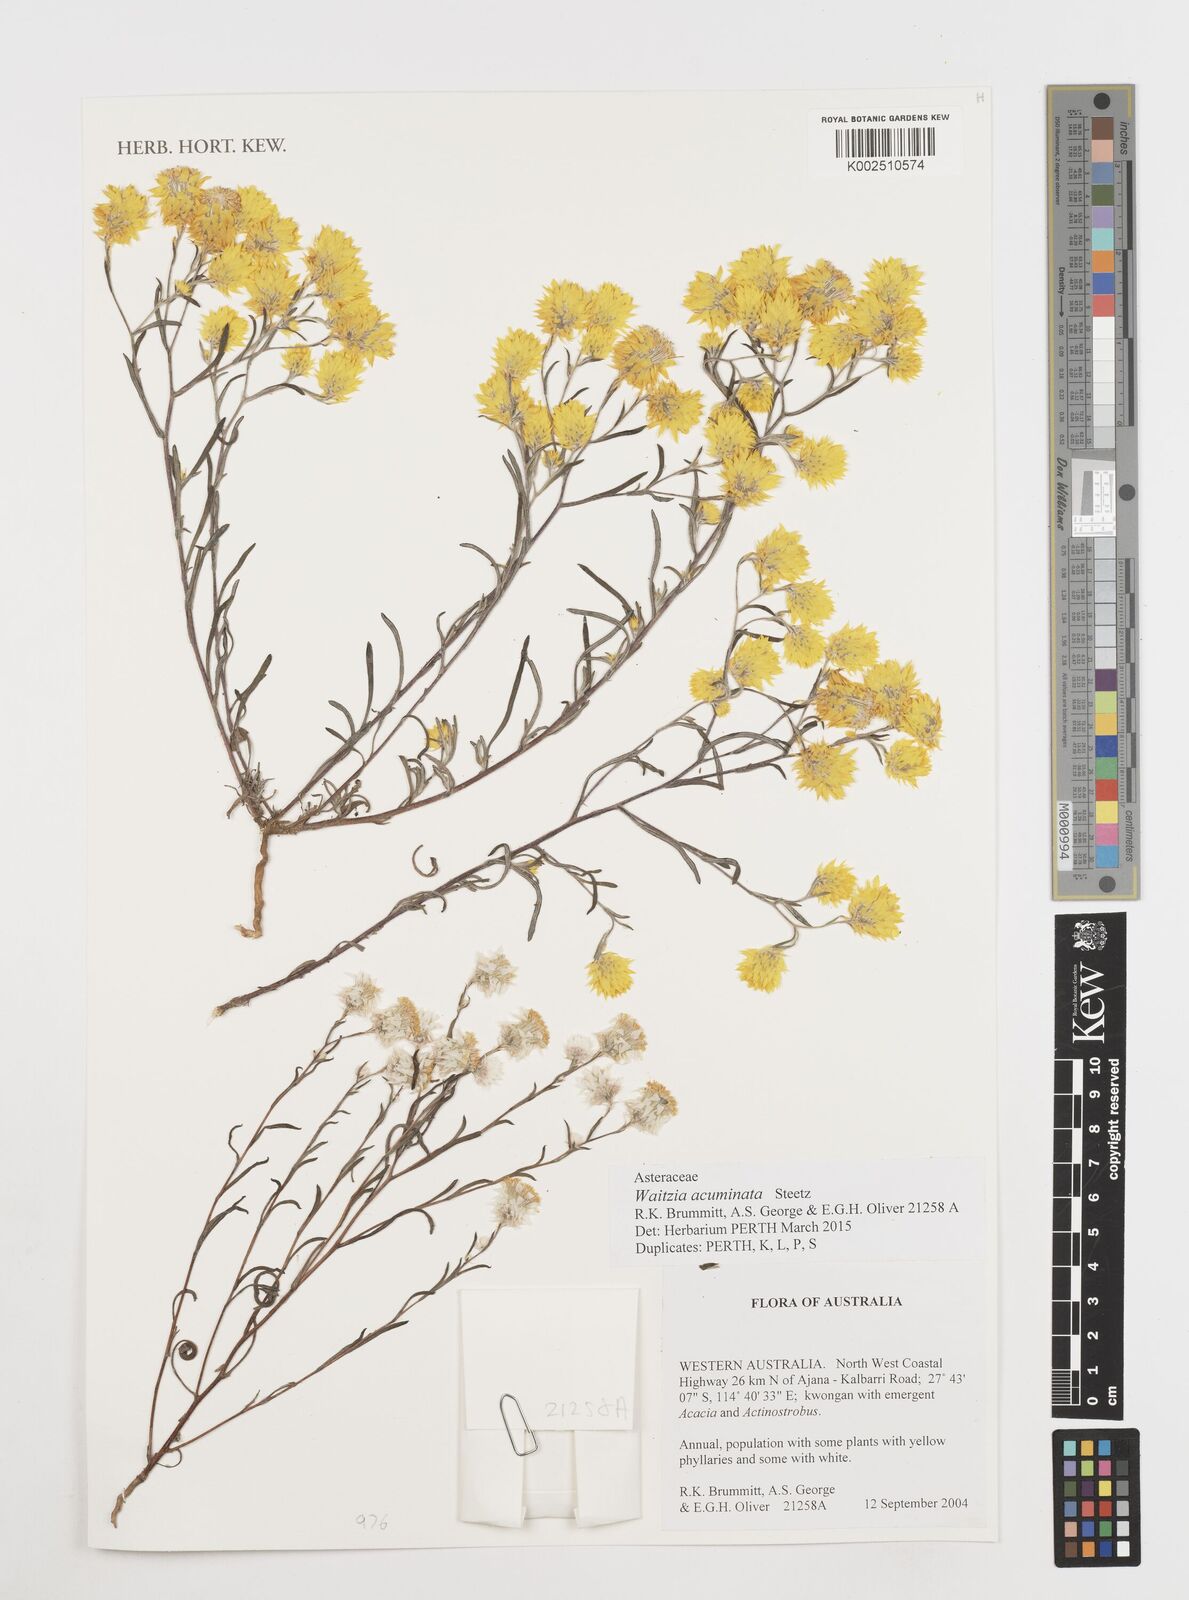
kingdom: Plantae
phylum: Tracheophyta
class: Magnoliopsida
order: Asterales
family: Asteraceae
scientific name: Asteraceae
